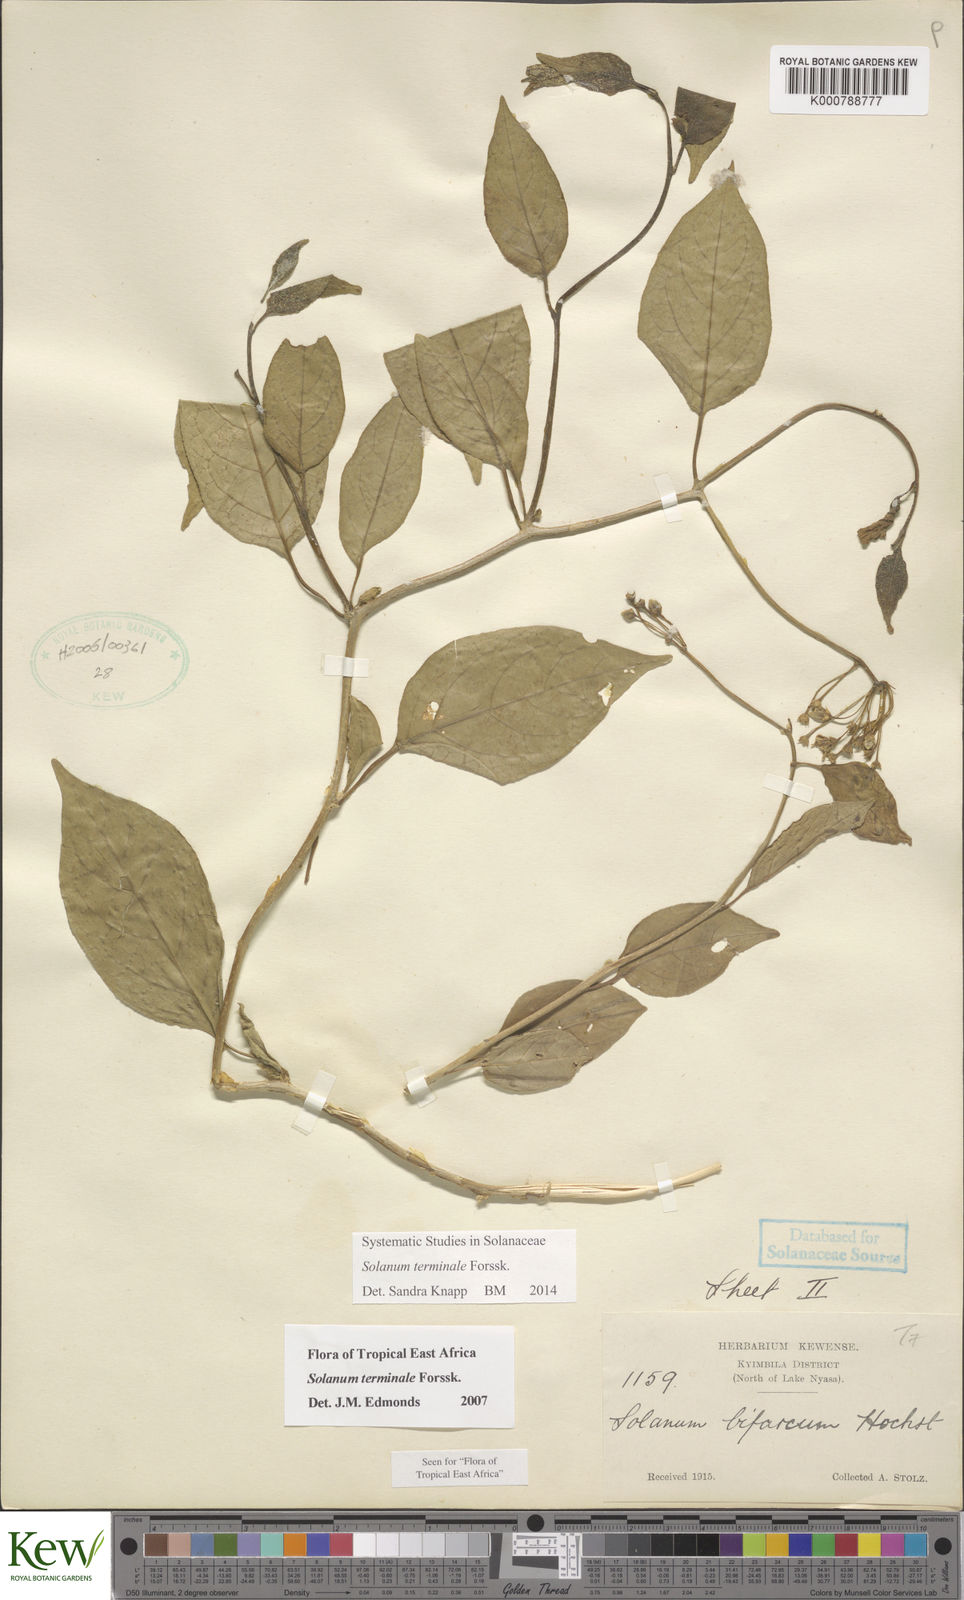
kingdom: Plantae
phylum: Tracheophyta
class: Magnoliopsida
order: Solanales
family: Solanaceae
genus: Solanum
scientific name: Solanum terminale
